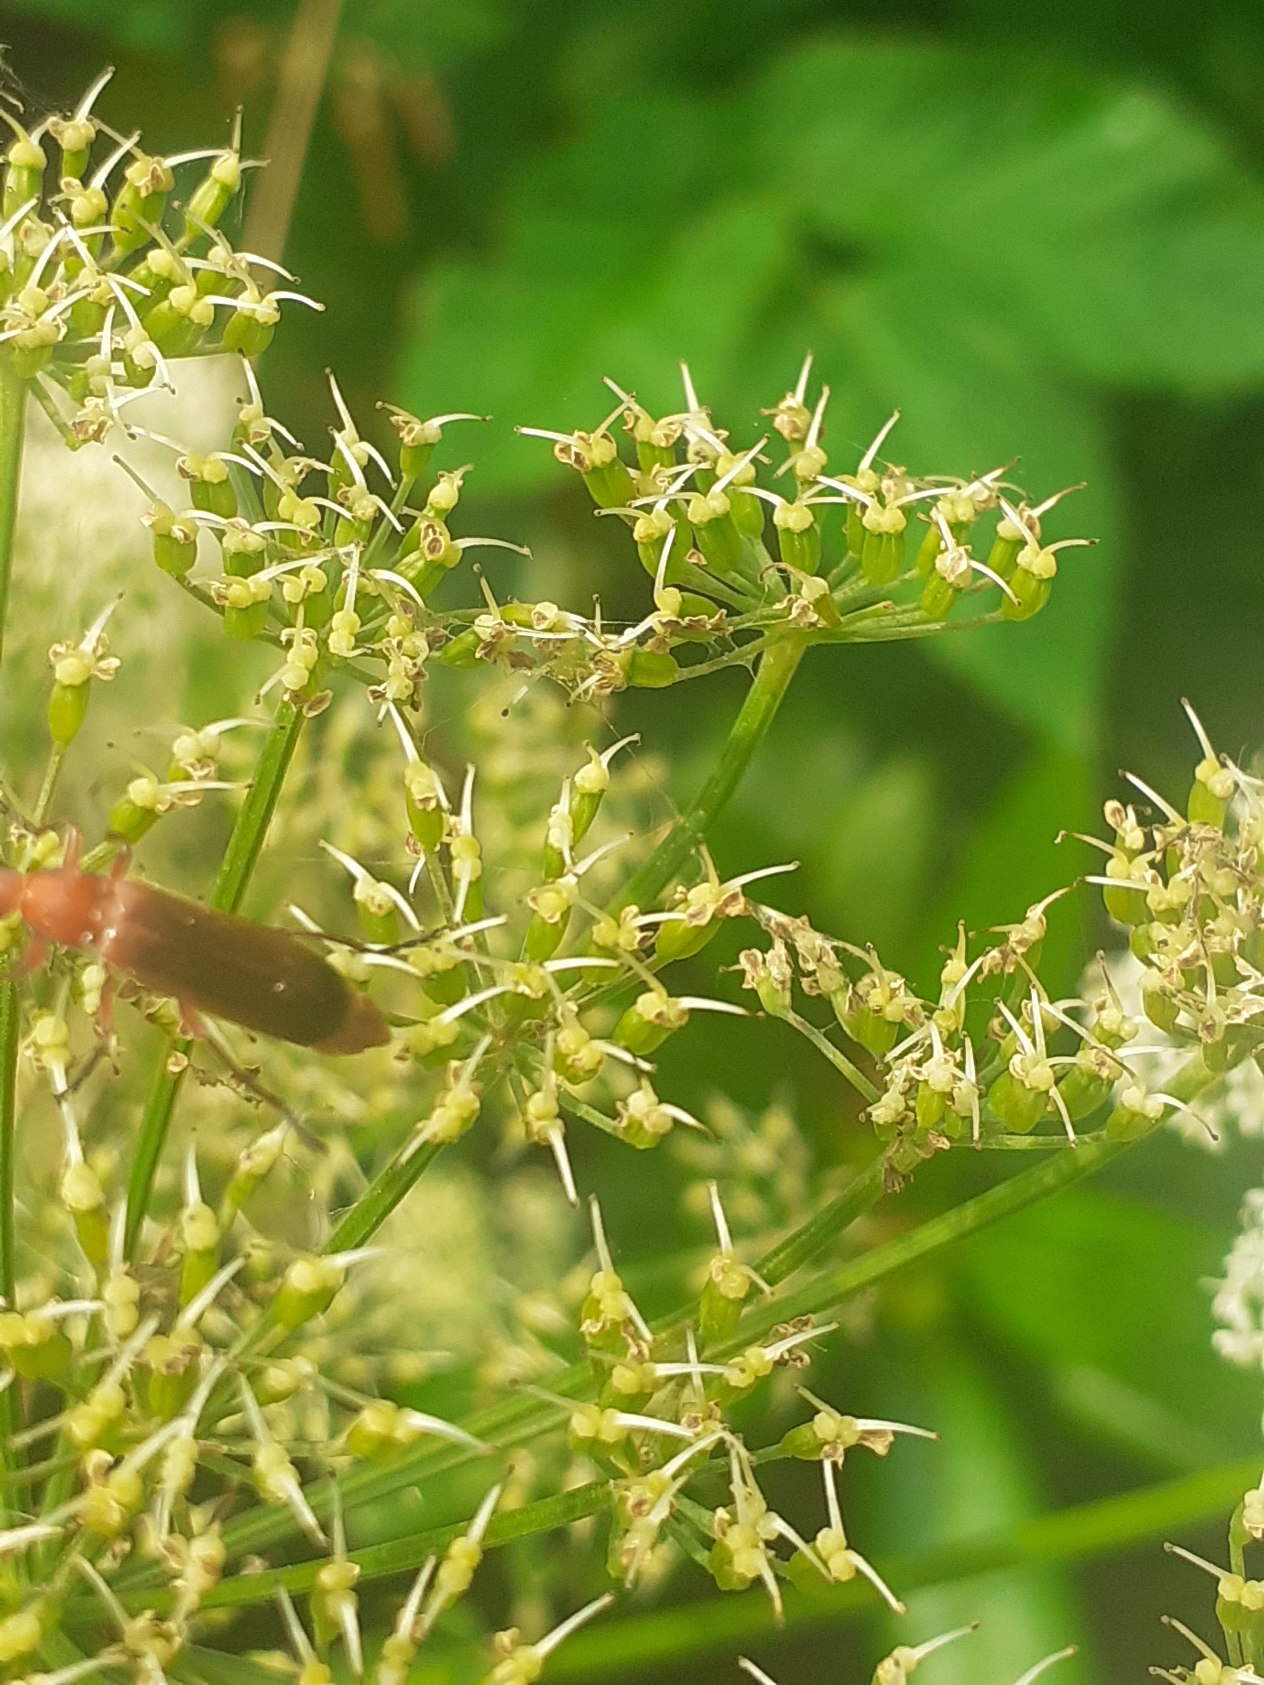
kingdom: Animalia
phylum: Arthropoda
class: Insecta
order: Coleoptera
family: Cantharidae
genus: Rhagonycha
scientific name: Rhagonycha fulva
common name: Præstebille
